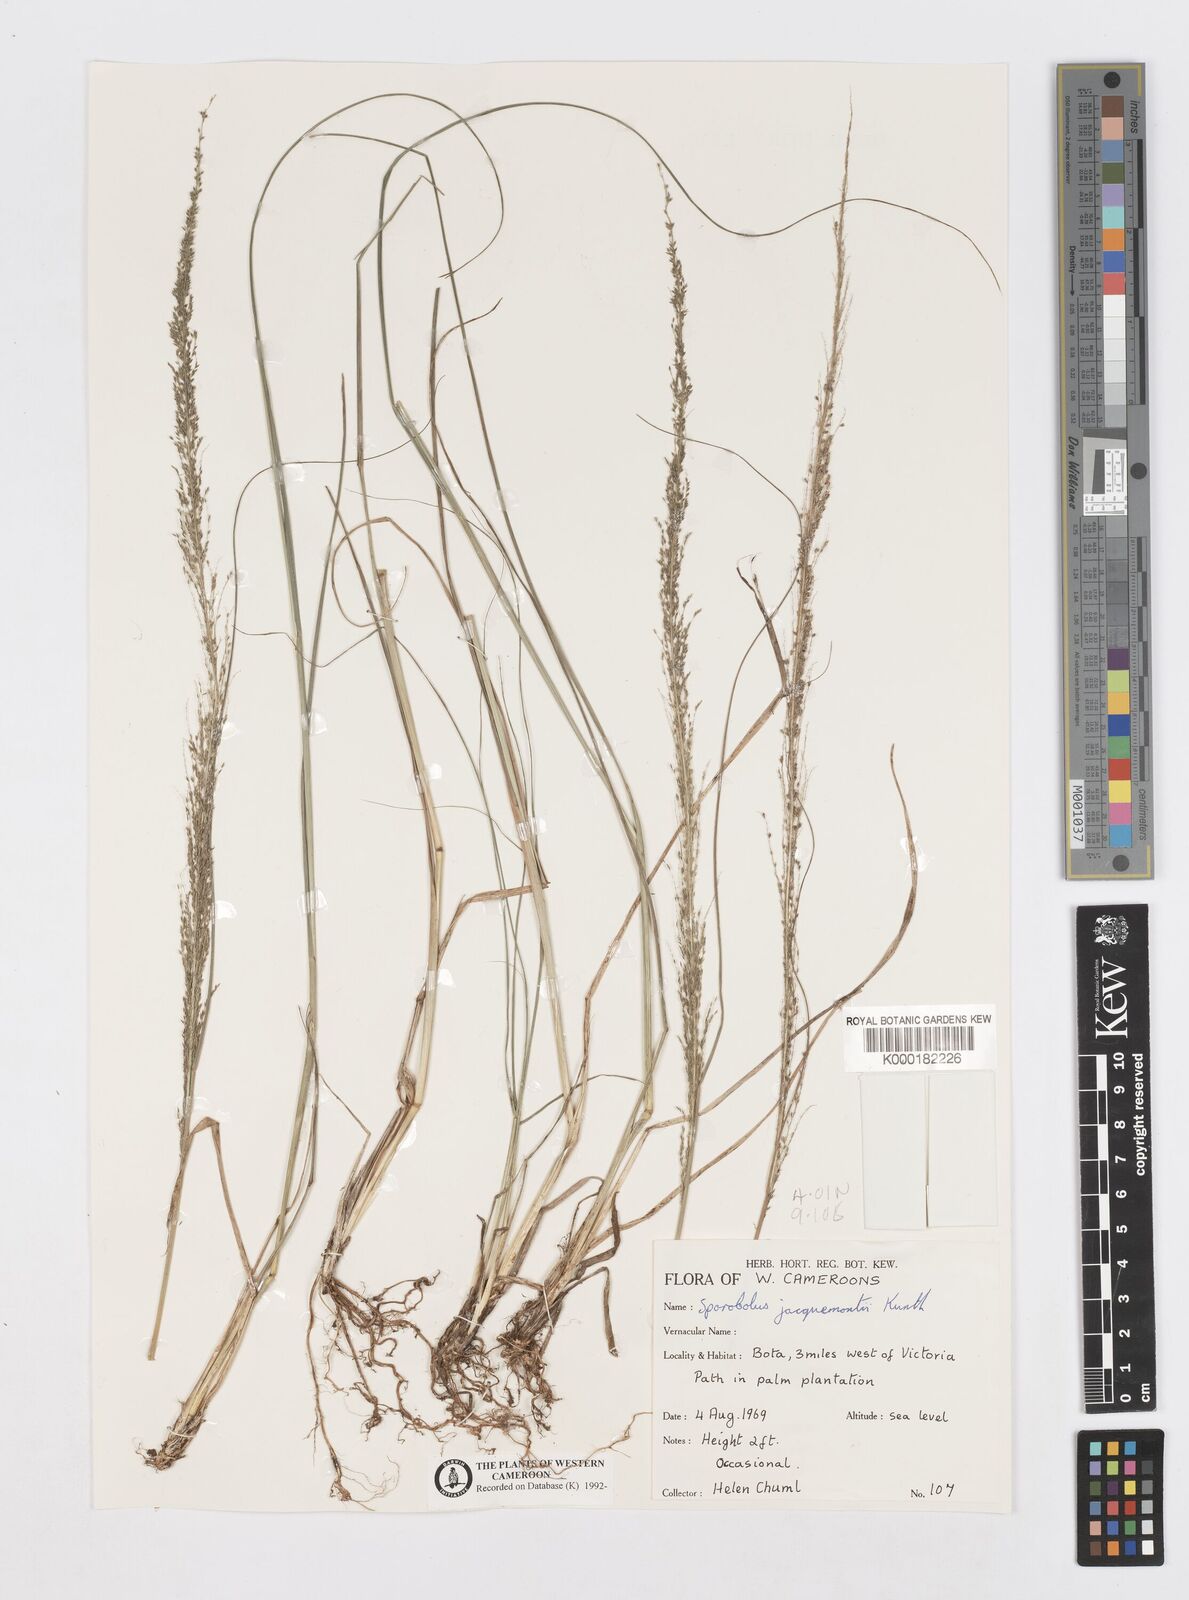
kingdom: Plantae
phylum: Tracheophyta
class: Liliopsida
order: Poales
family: Poaceae
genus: Sporobolus
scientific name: Sporobolus pyramidalis
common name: West indian dropseed
